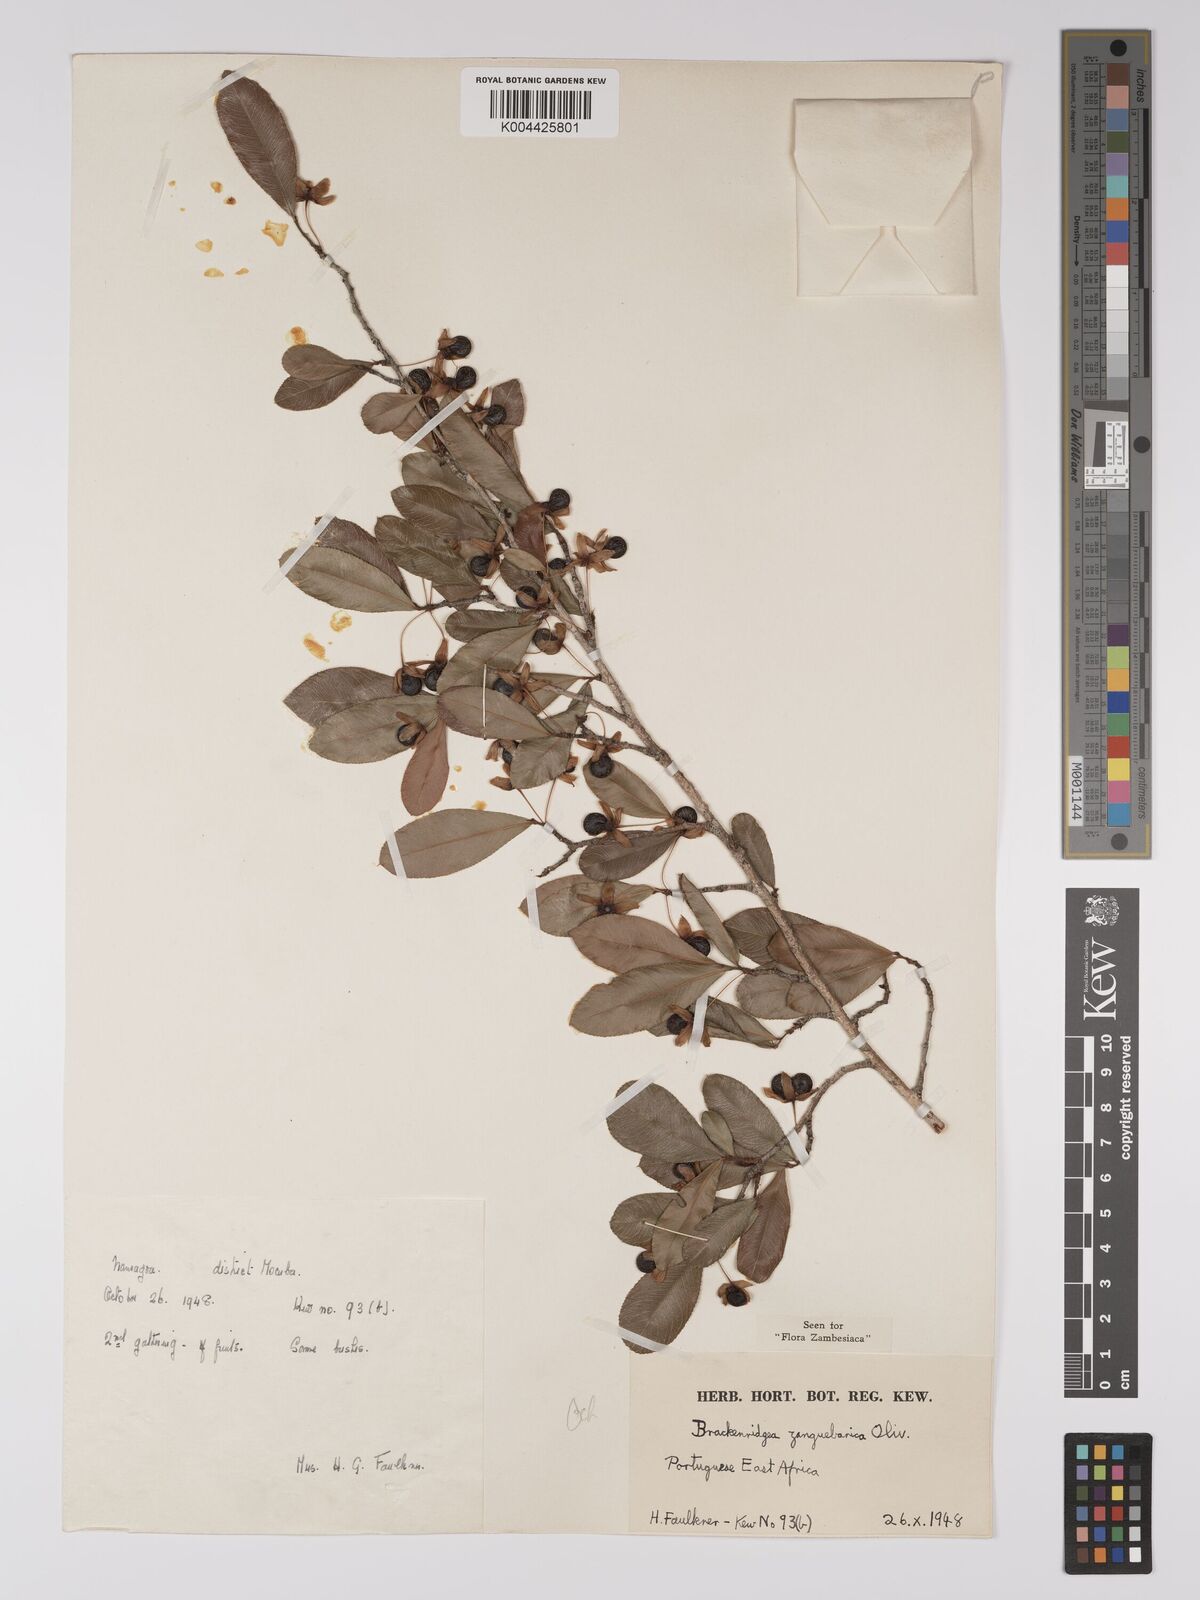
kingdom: Plantae
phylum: Tracheophyta
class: Magnoliopsida
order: Malpighiales
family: Ochnaceae
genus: Brackenridgea
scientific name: Brackenridgea zanguebarica
